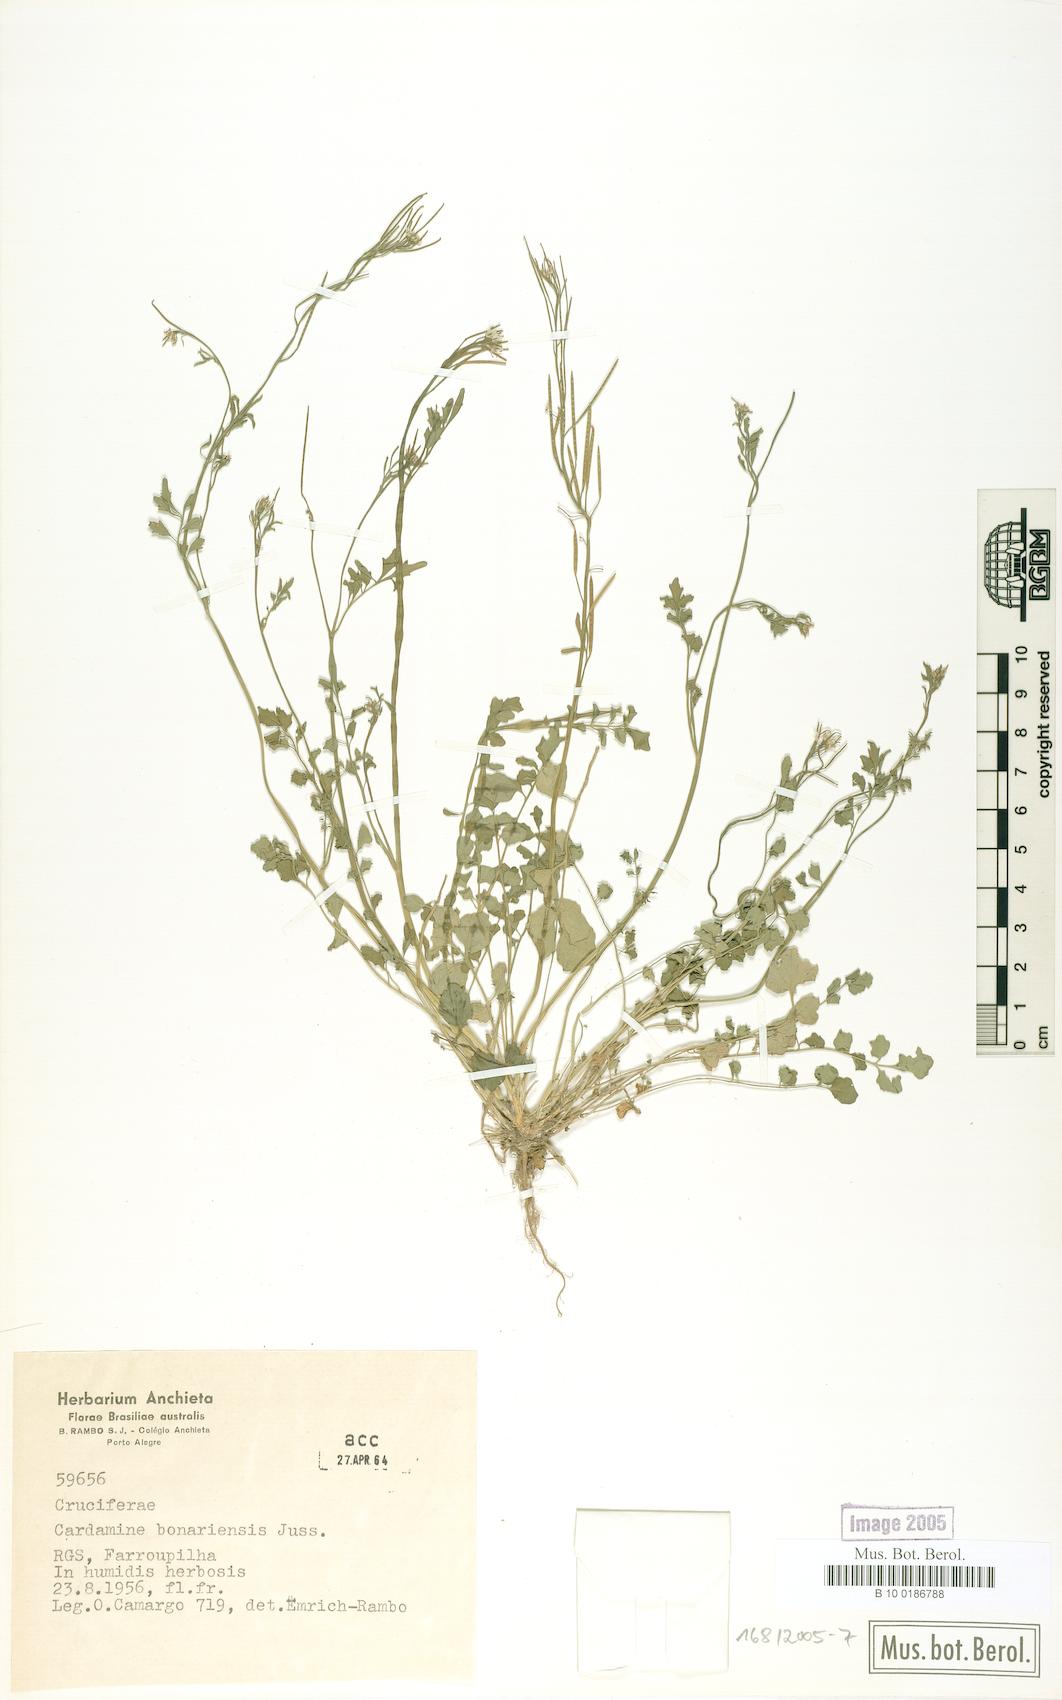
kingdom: Plantae
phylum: Tracheophyta
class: Magnoliopsida
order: Brassicales
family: Brassicaceae
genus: Cardamine
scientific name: Cardamine bonariensis
